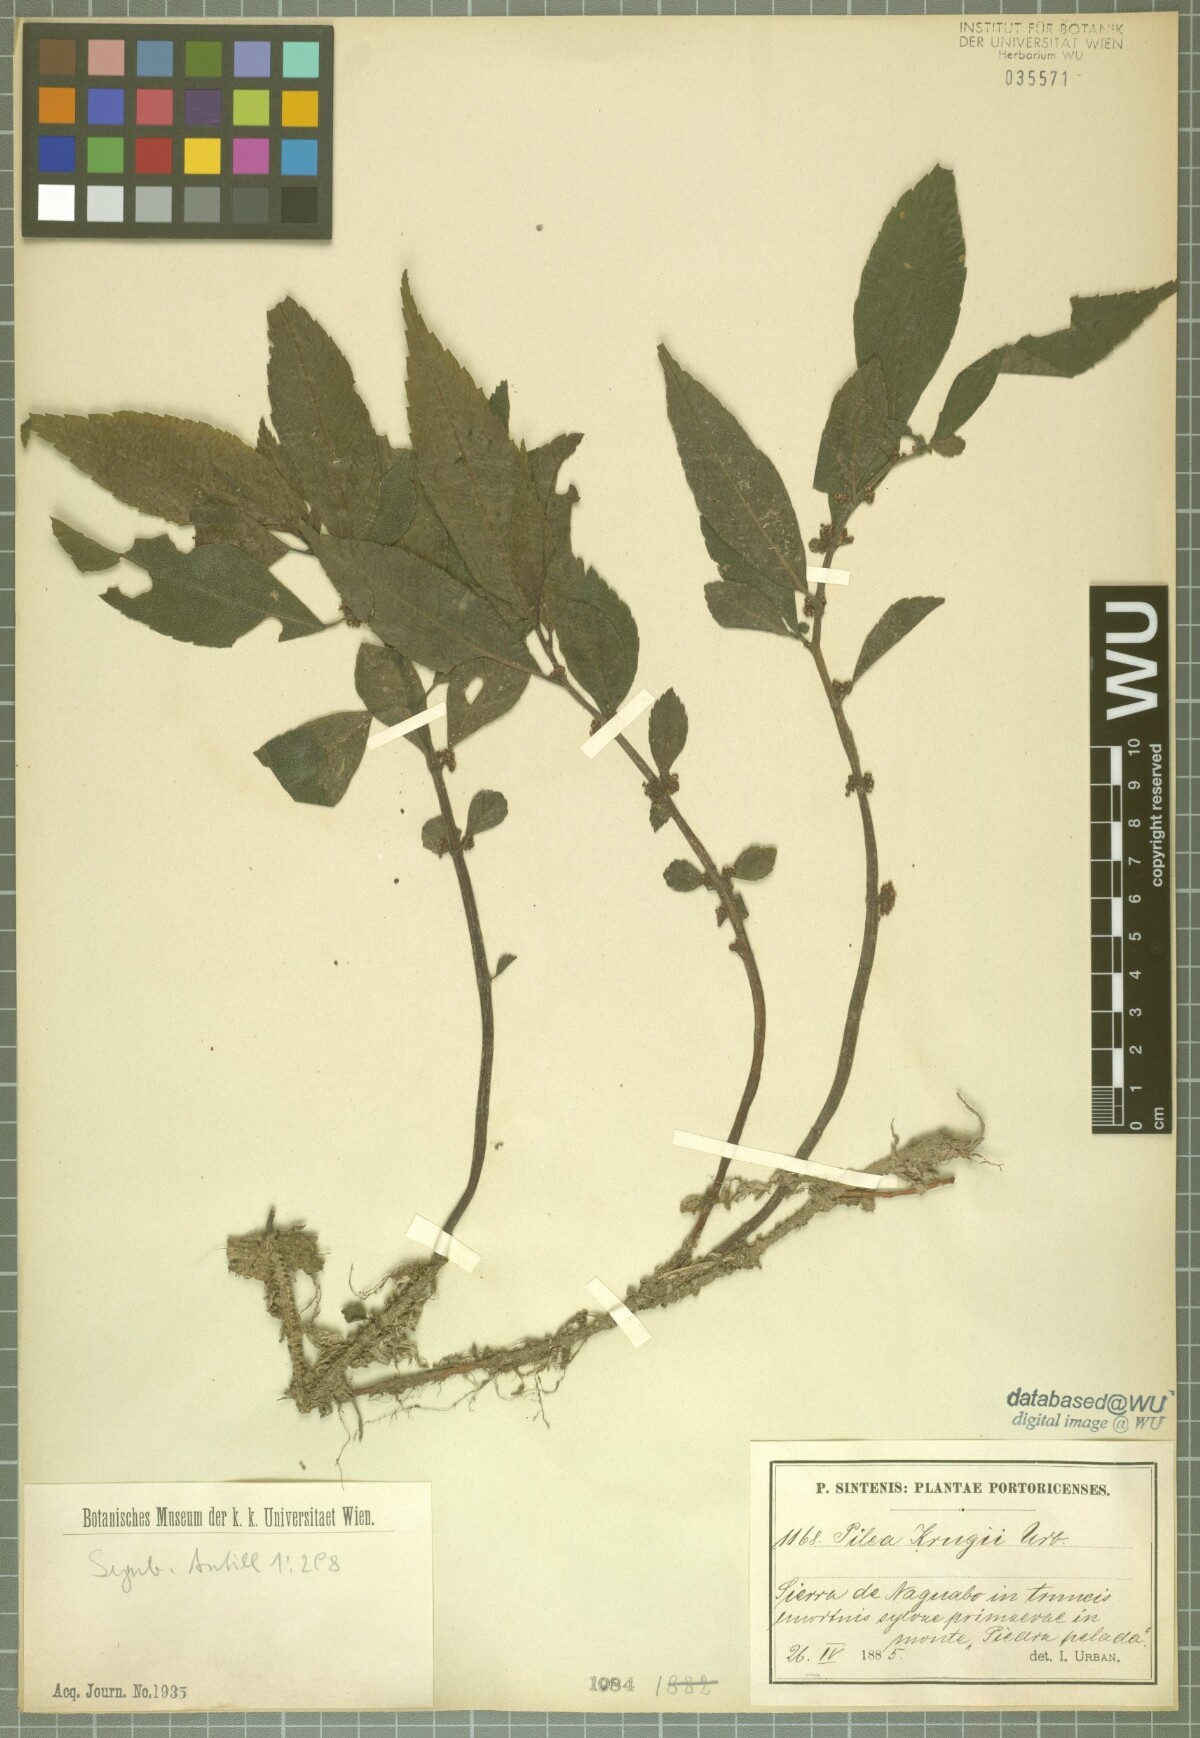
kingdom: Plantae
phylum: Tracheophyta
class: Magnoliopsida
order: Rosales
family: Urticaceae
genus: Pilea
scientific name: Pilea krugii
